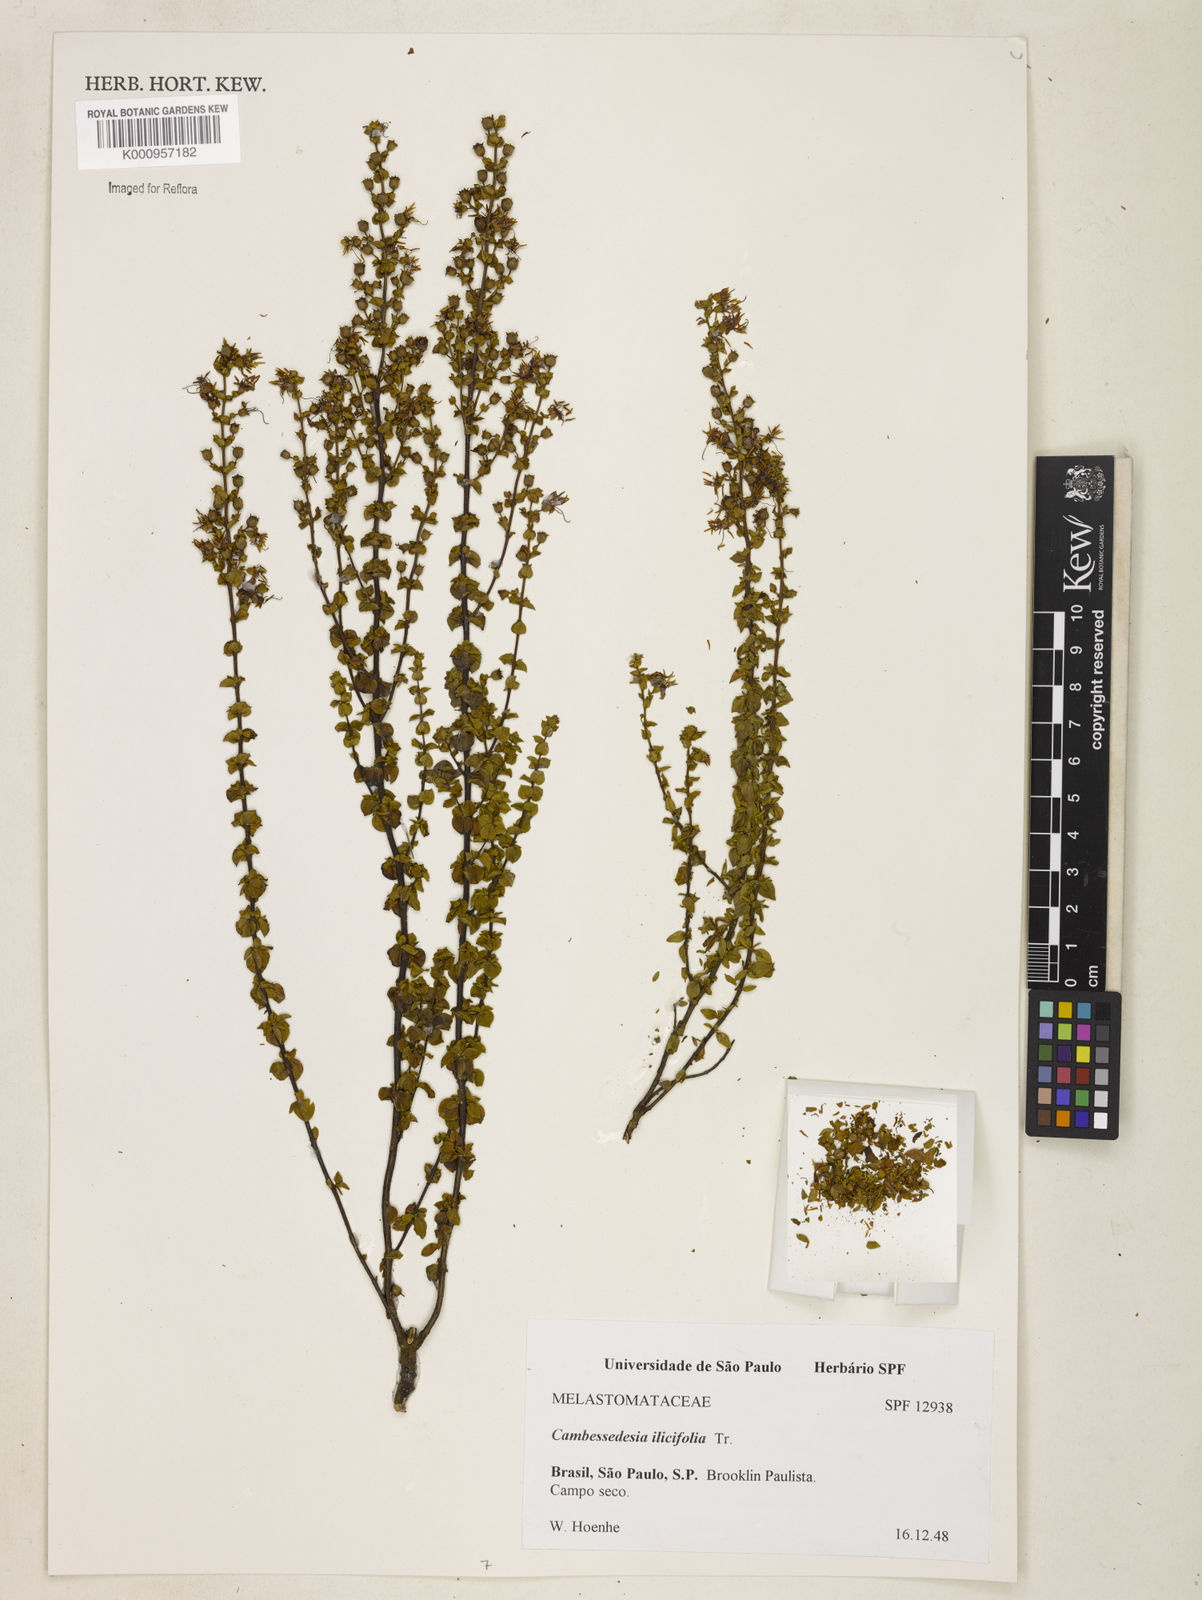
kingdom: Plantae
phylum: Tracheophyta
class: Magnoliopsida
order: Myrtales
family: Melastomataceae
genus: Cambessedesia
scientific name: Cambessedesia espora
